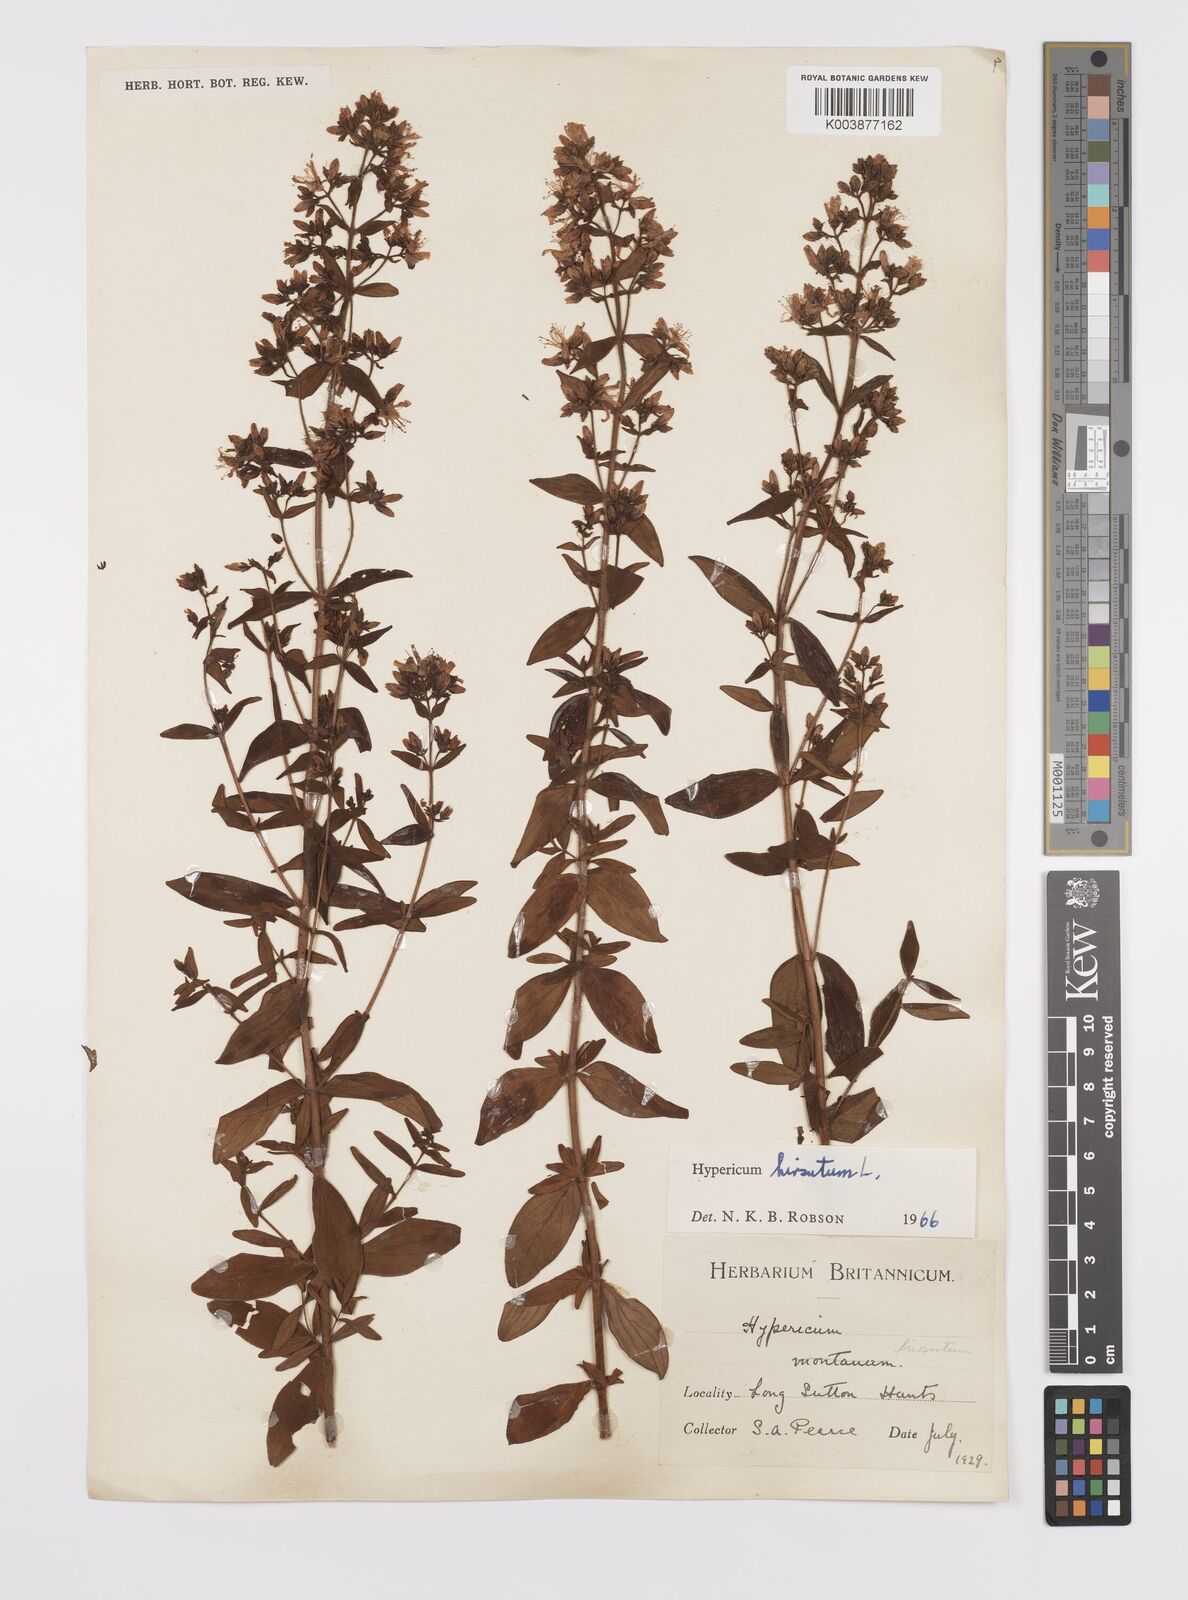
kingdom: Plantae
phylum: Tracheophyta
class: Magnoliopsida
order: Malpighiales
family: Hypericaceae
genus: Hypericum
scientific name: Hypericum hirsutum
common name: Hairy st. john's-wort
